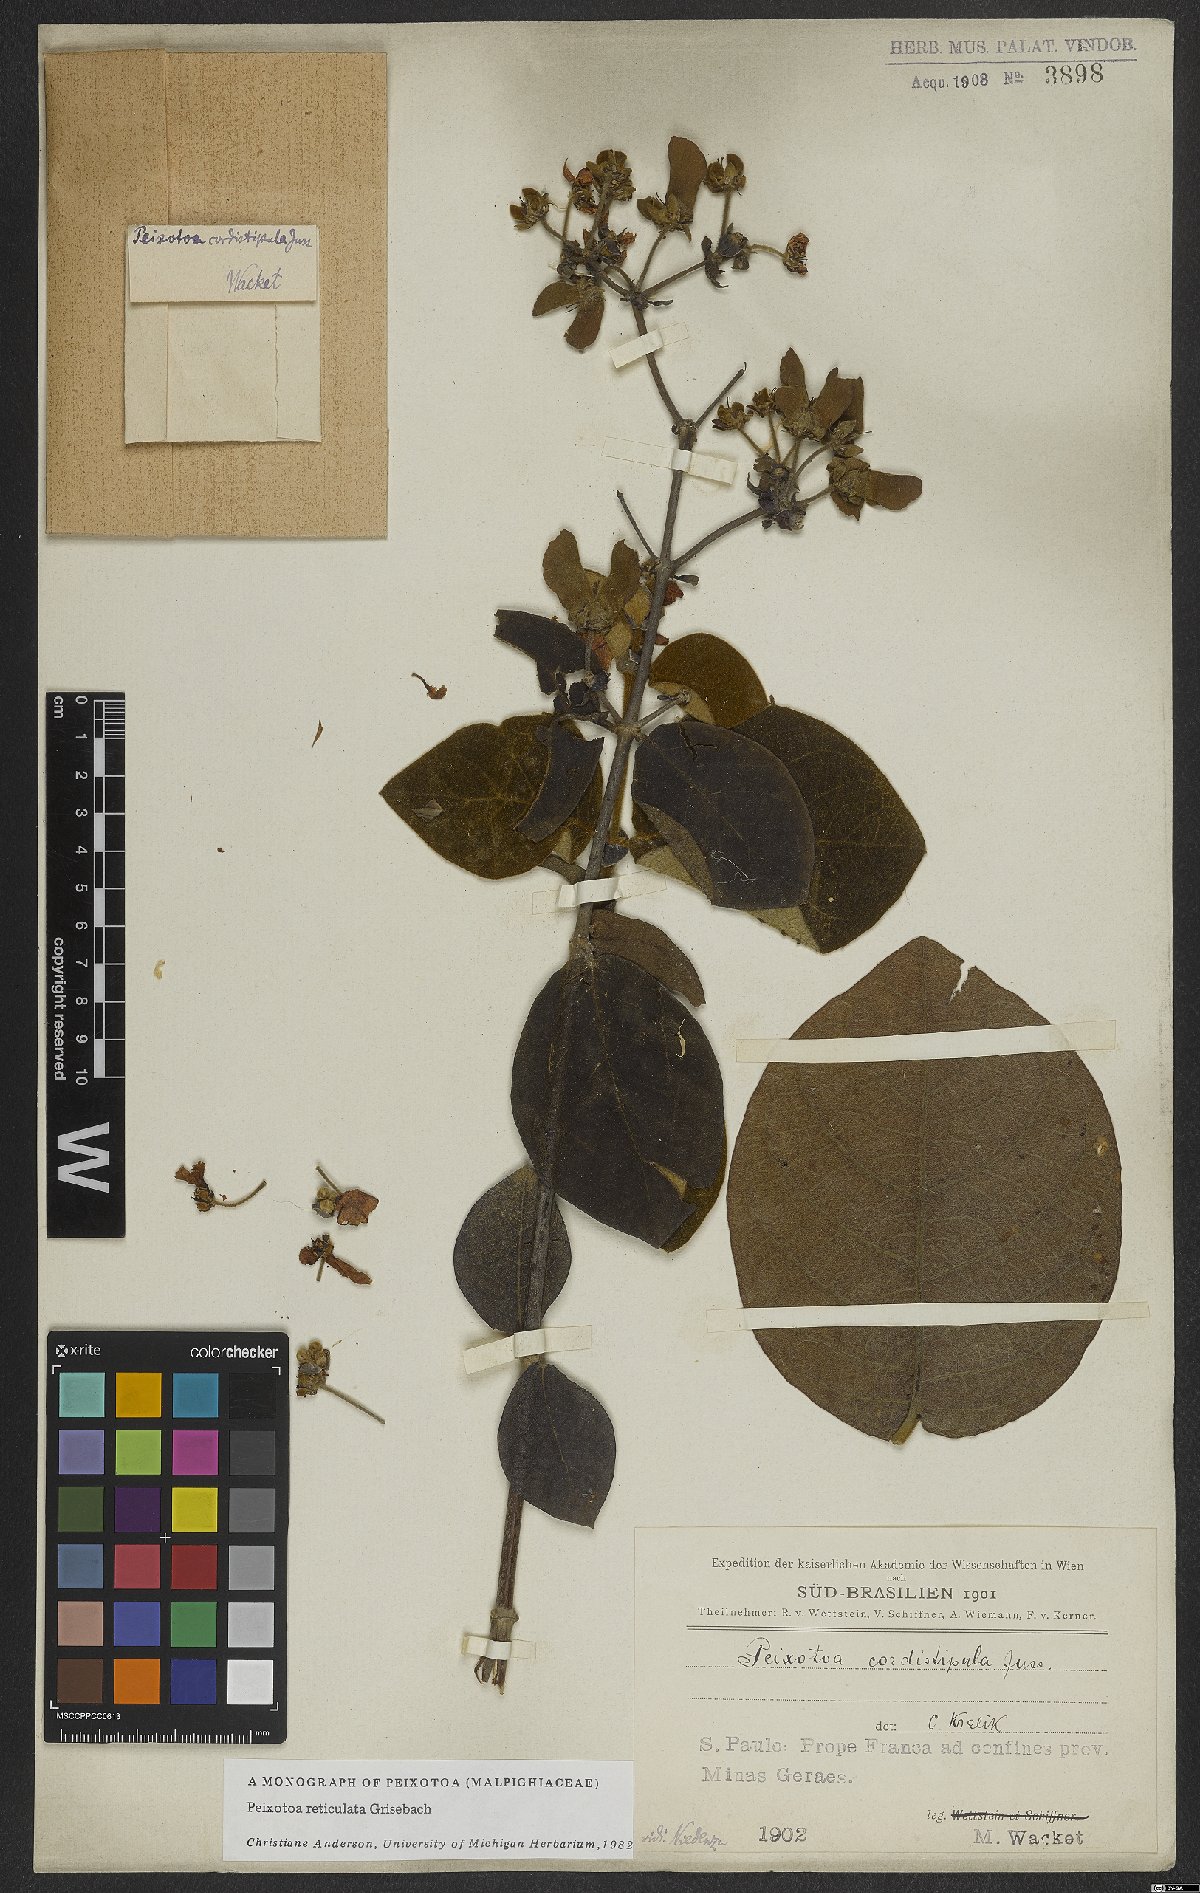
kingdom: Plantae
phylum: Tracheophyta
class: Magnoliopsida
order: Malpighiales
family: Malpighiaceae
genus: Peixotoa
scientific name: Peixotoa reticulata
